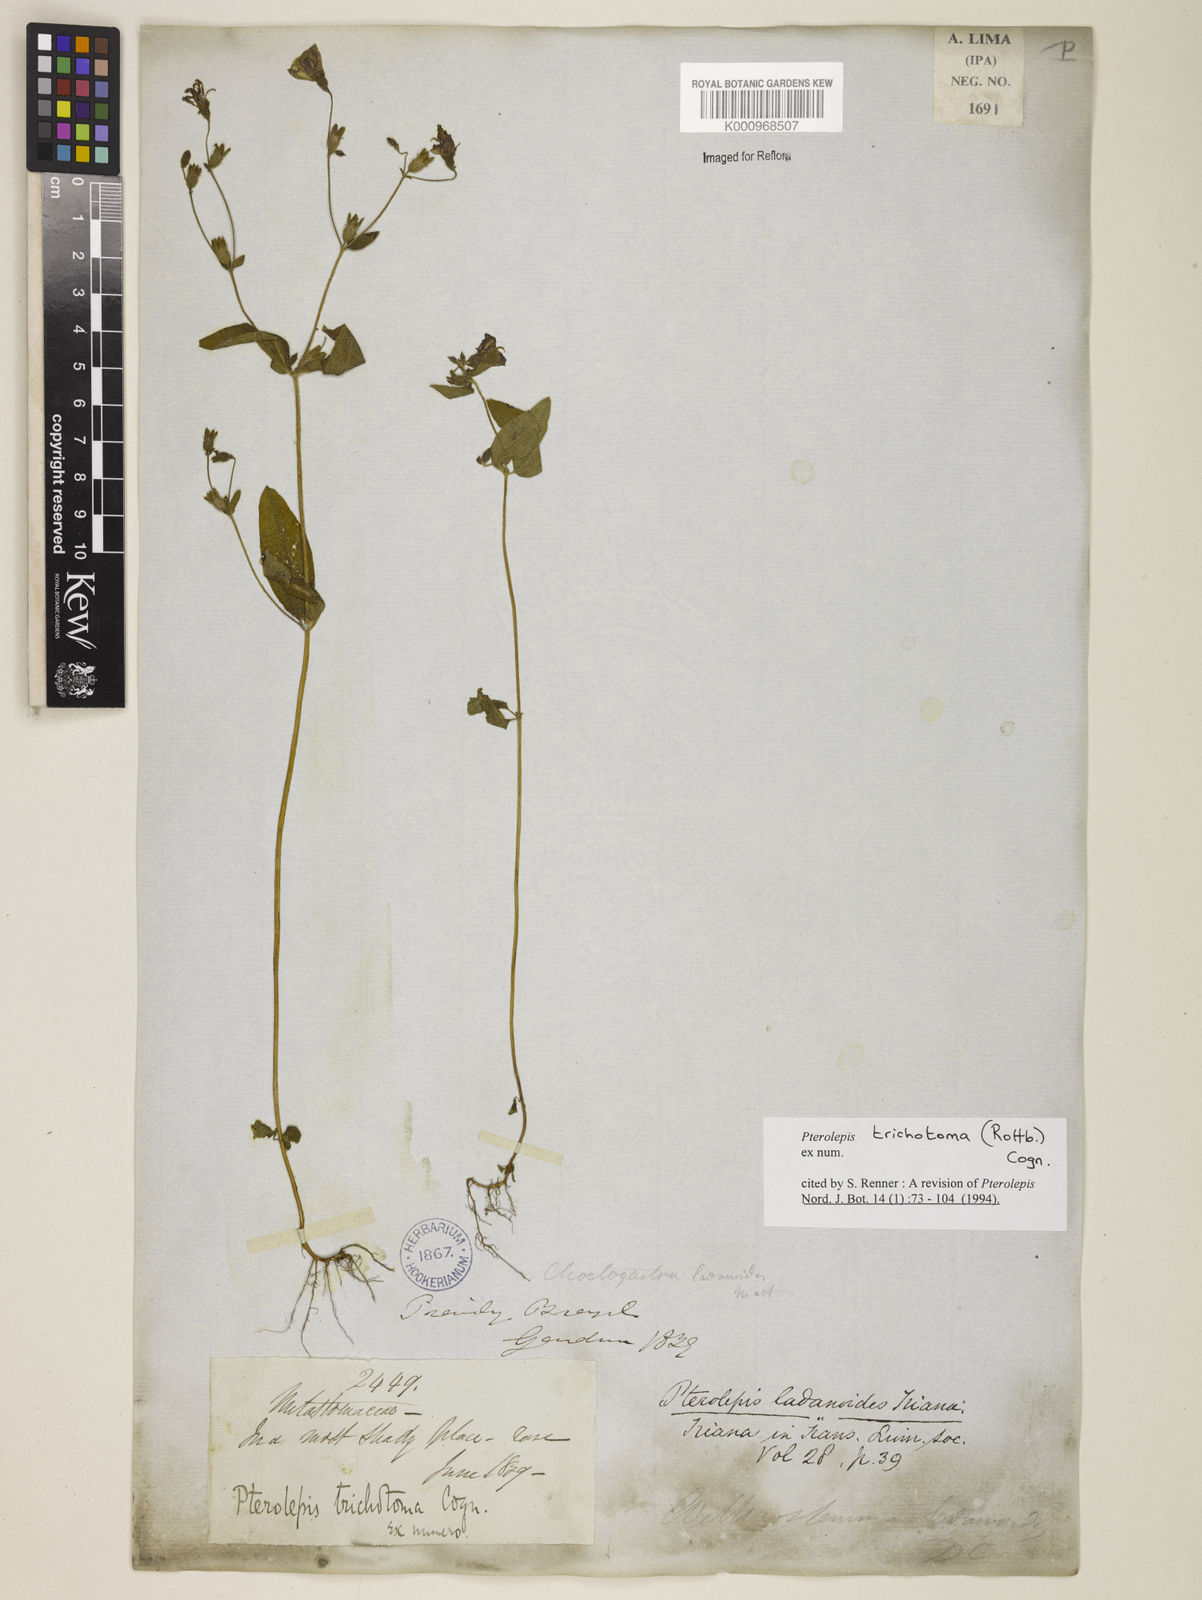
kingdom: Plantae
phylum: Tracheophyta
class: Magnoliopsida
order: Myrtales
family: Melastomataceae
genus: Pterolepis
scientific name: Pterolepis trichotoma
